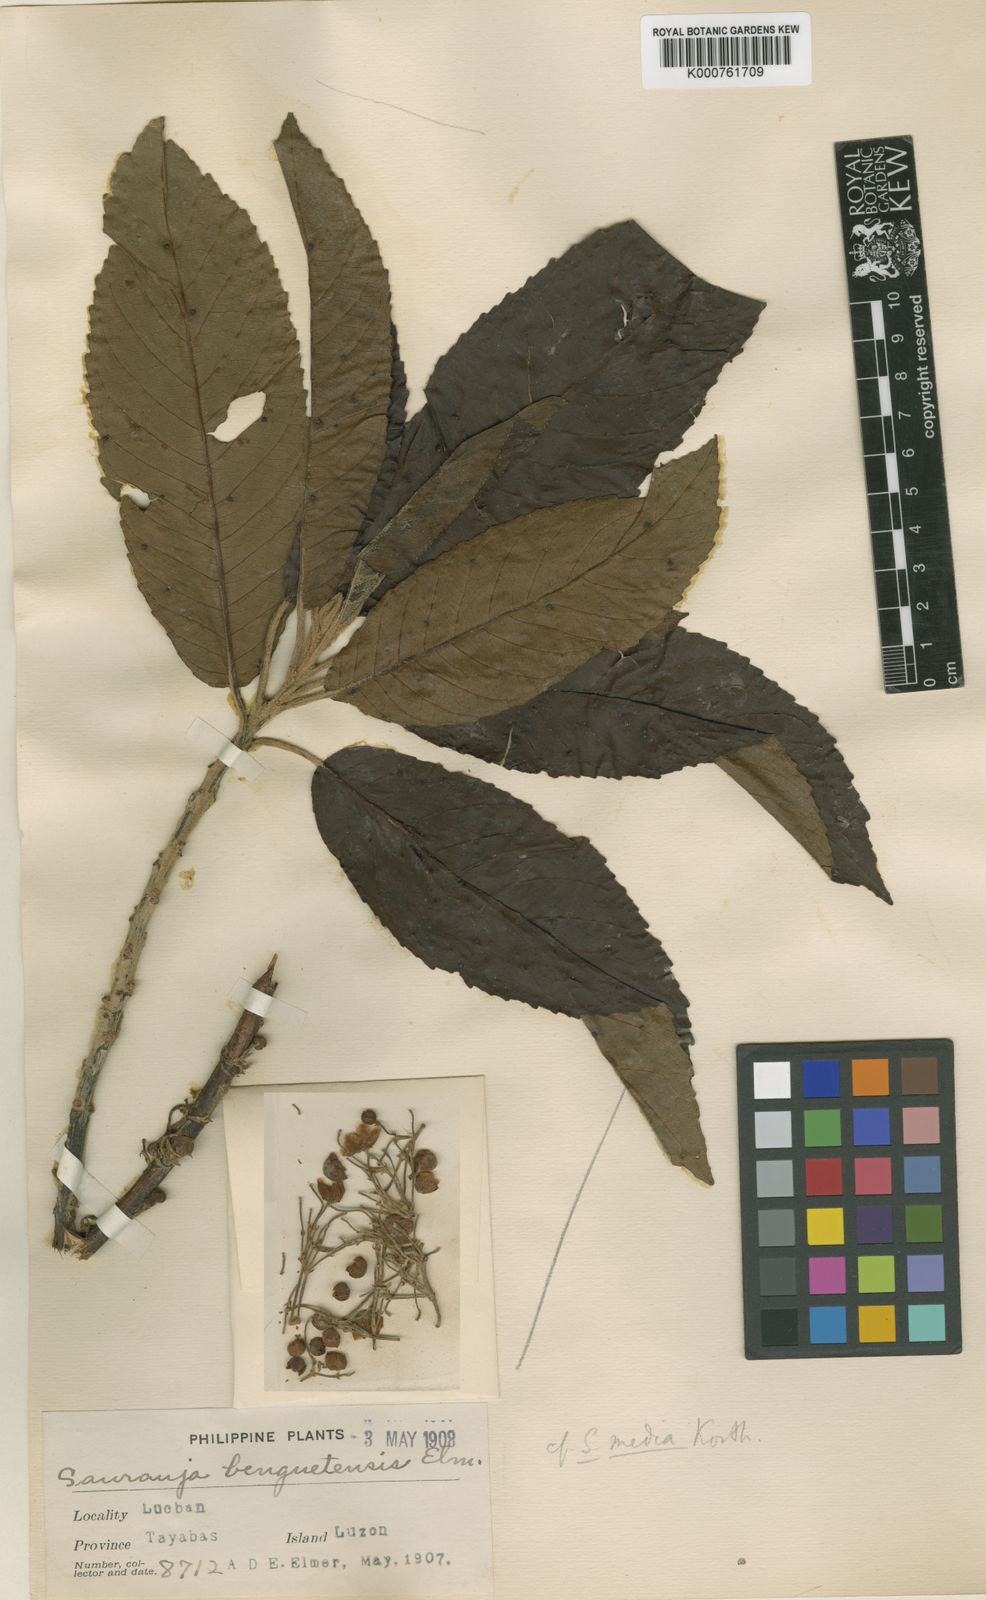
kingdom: Plantae
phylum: Tracheophyta
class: Magnoliopsida
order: Ericales
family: Actinidiaceae
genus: Saurauia
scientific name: Saurauia
